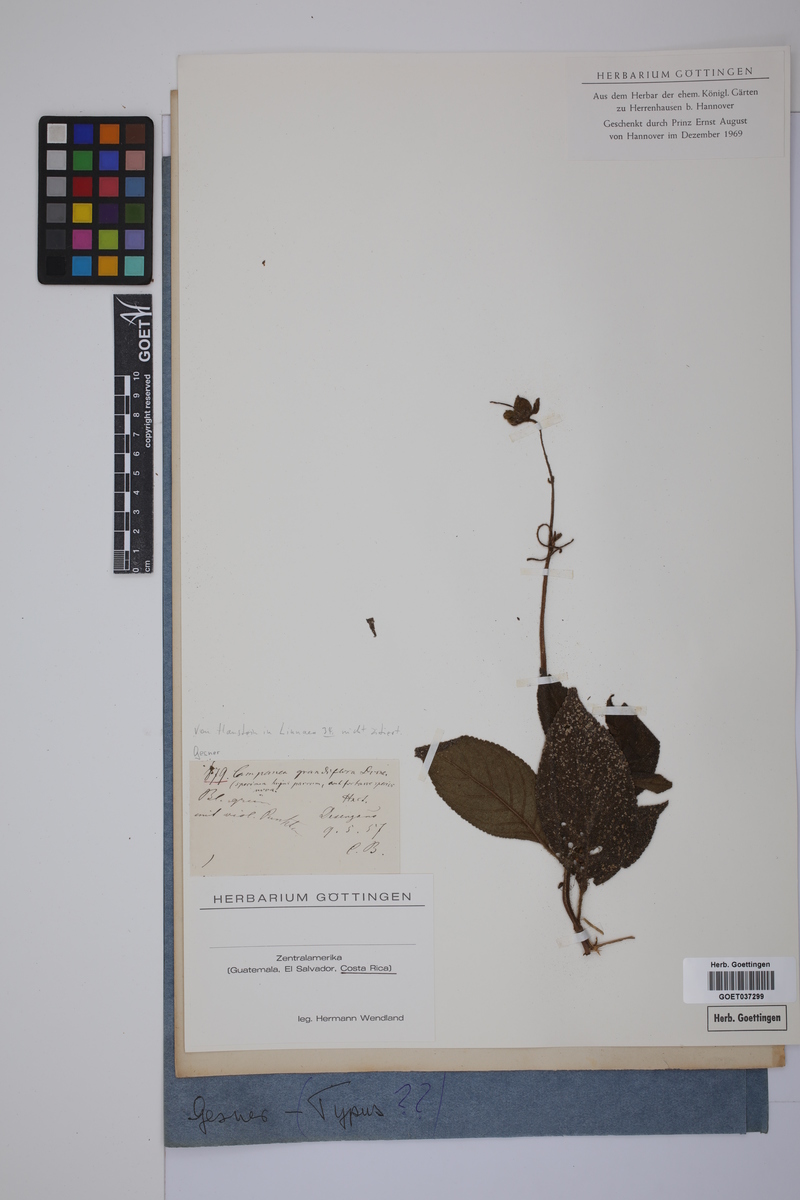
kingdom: Plantae
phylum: Tracheophyta
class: Magnoliopsida
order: Lamiales
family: Gesneriaceae
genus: Kohleria
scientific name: Kohleria tigridia
